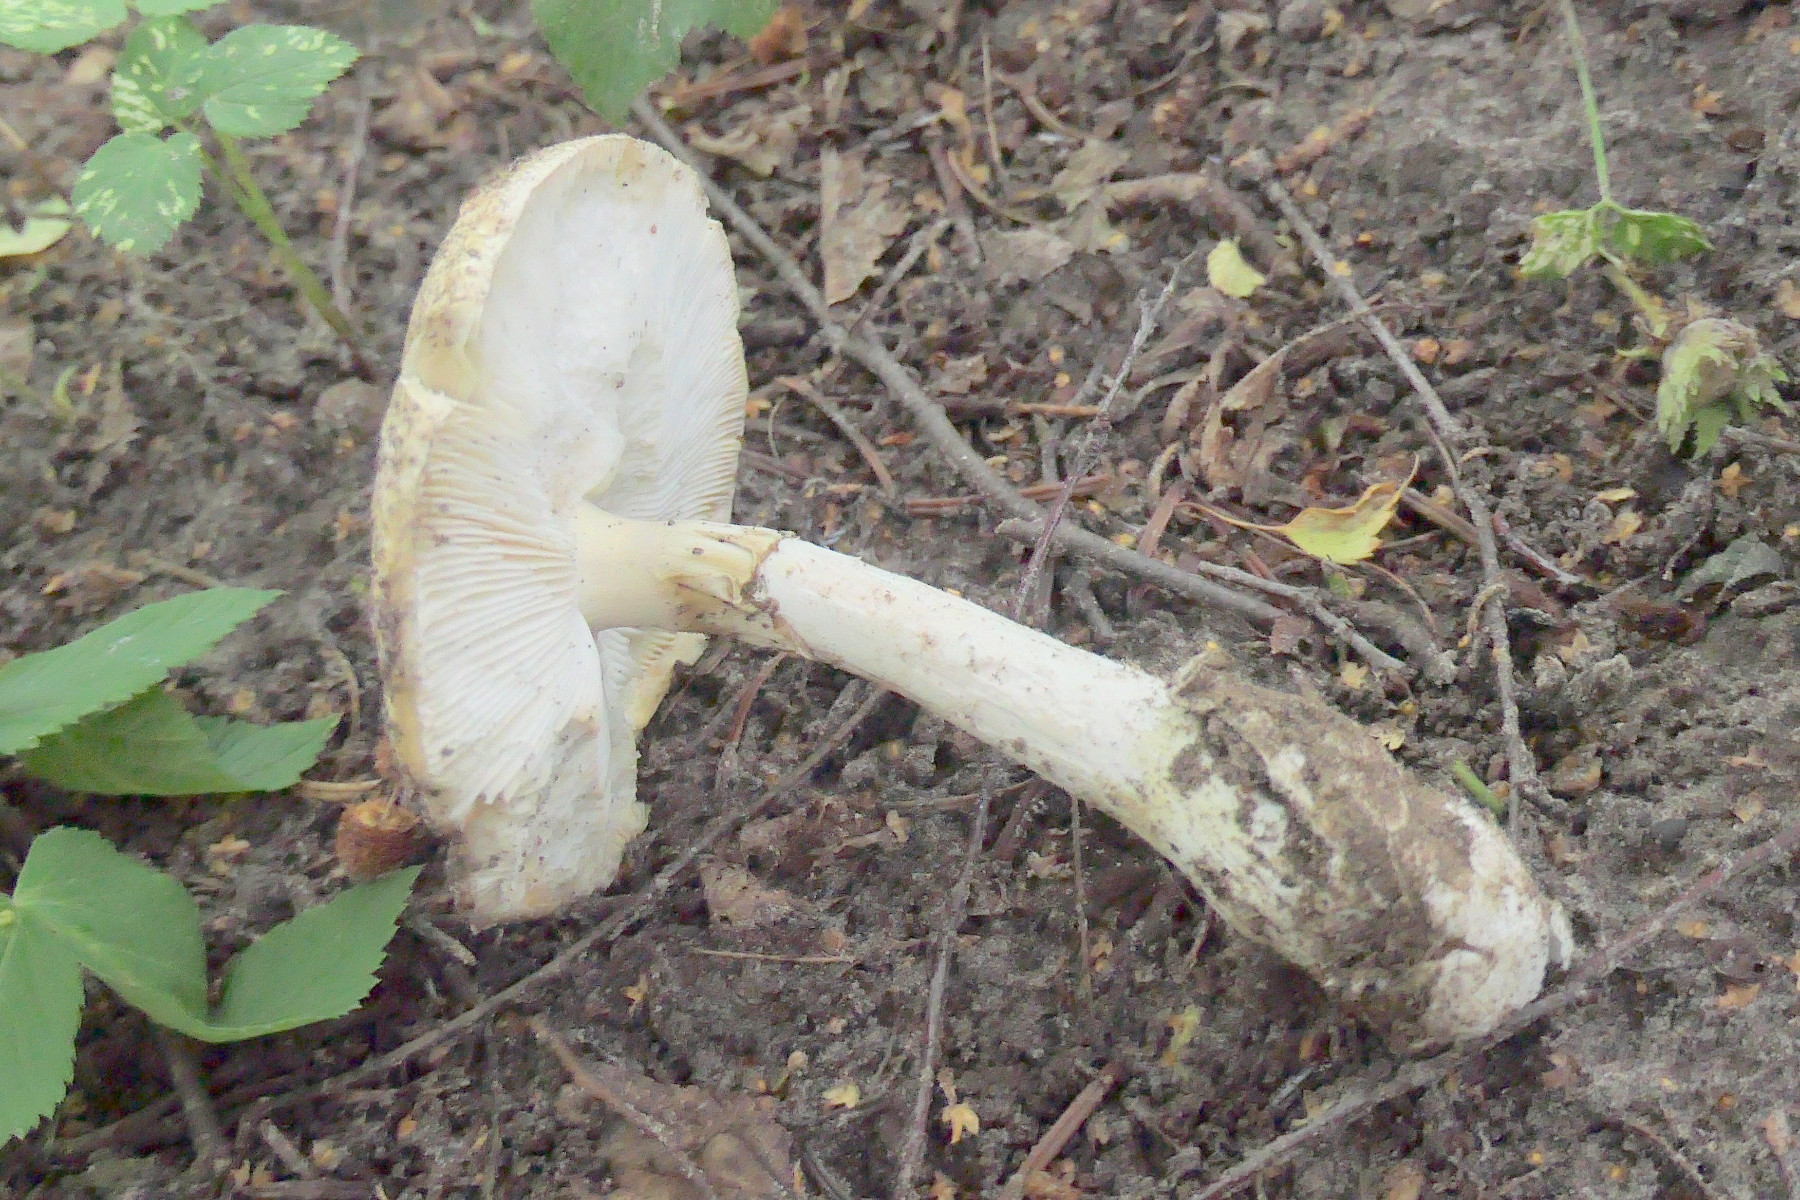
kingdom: Fungi
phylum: Basidiomycota
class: Agaricomycetes
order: Agaricales
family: Amanitaceae
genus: Amanita
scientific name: Amanita phalloides
